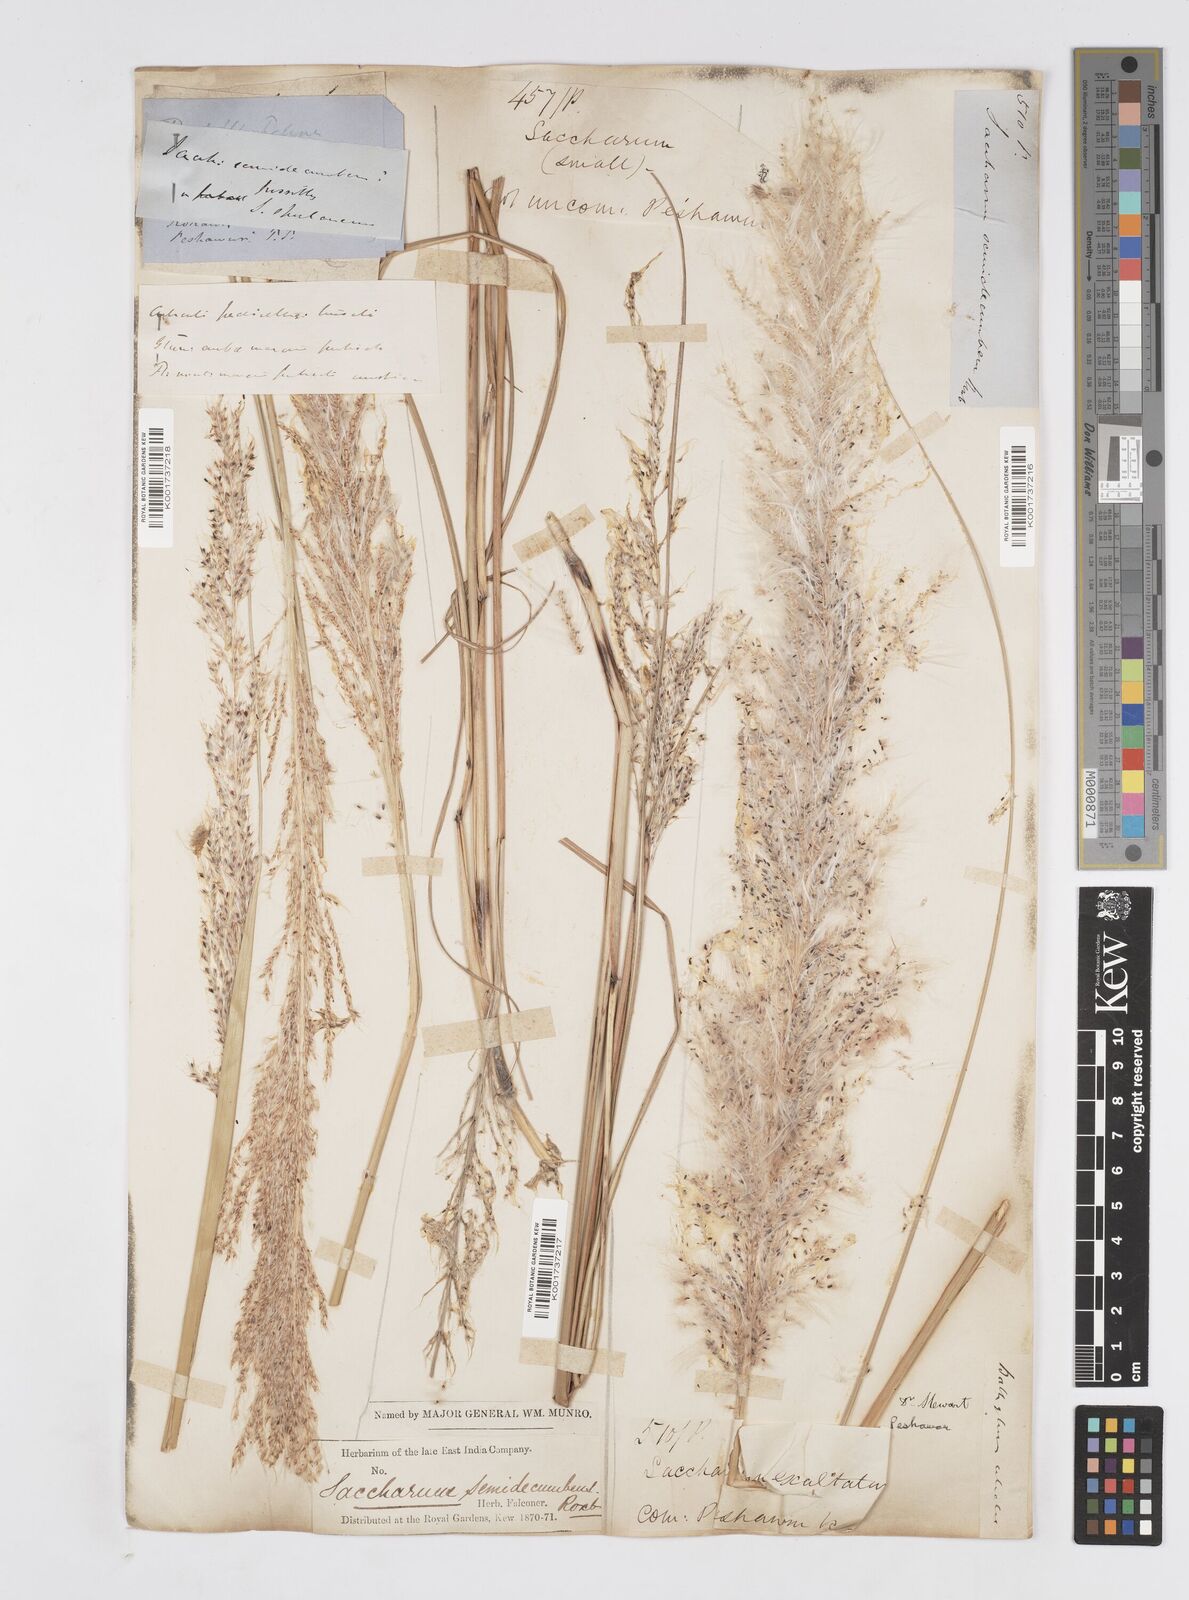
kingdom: Plantae
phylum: Tracheophyta
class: Liliopsida
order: Poales
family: Poaceae
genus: Saccharum
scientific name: Saccharum spontaneum
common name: Wild sugarcane
